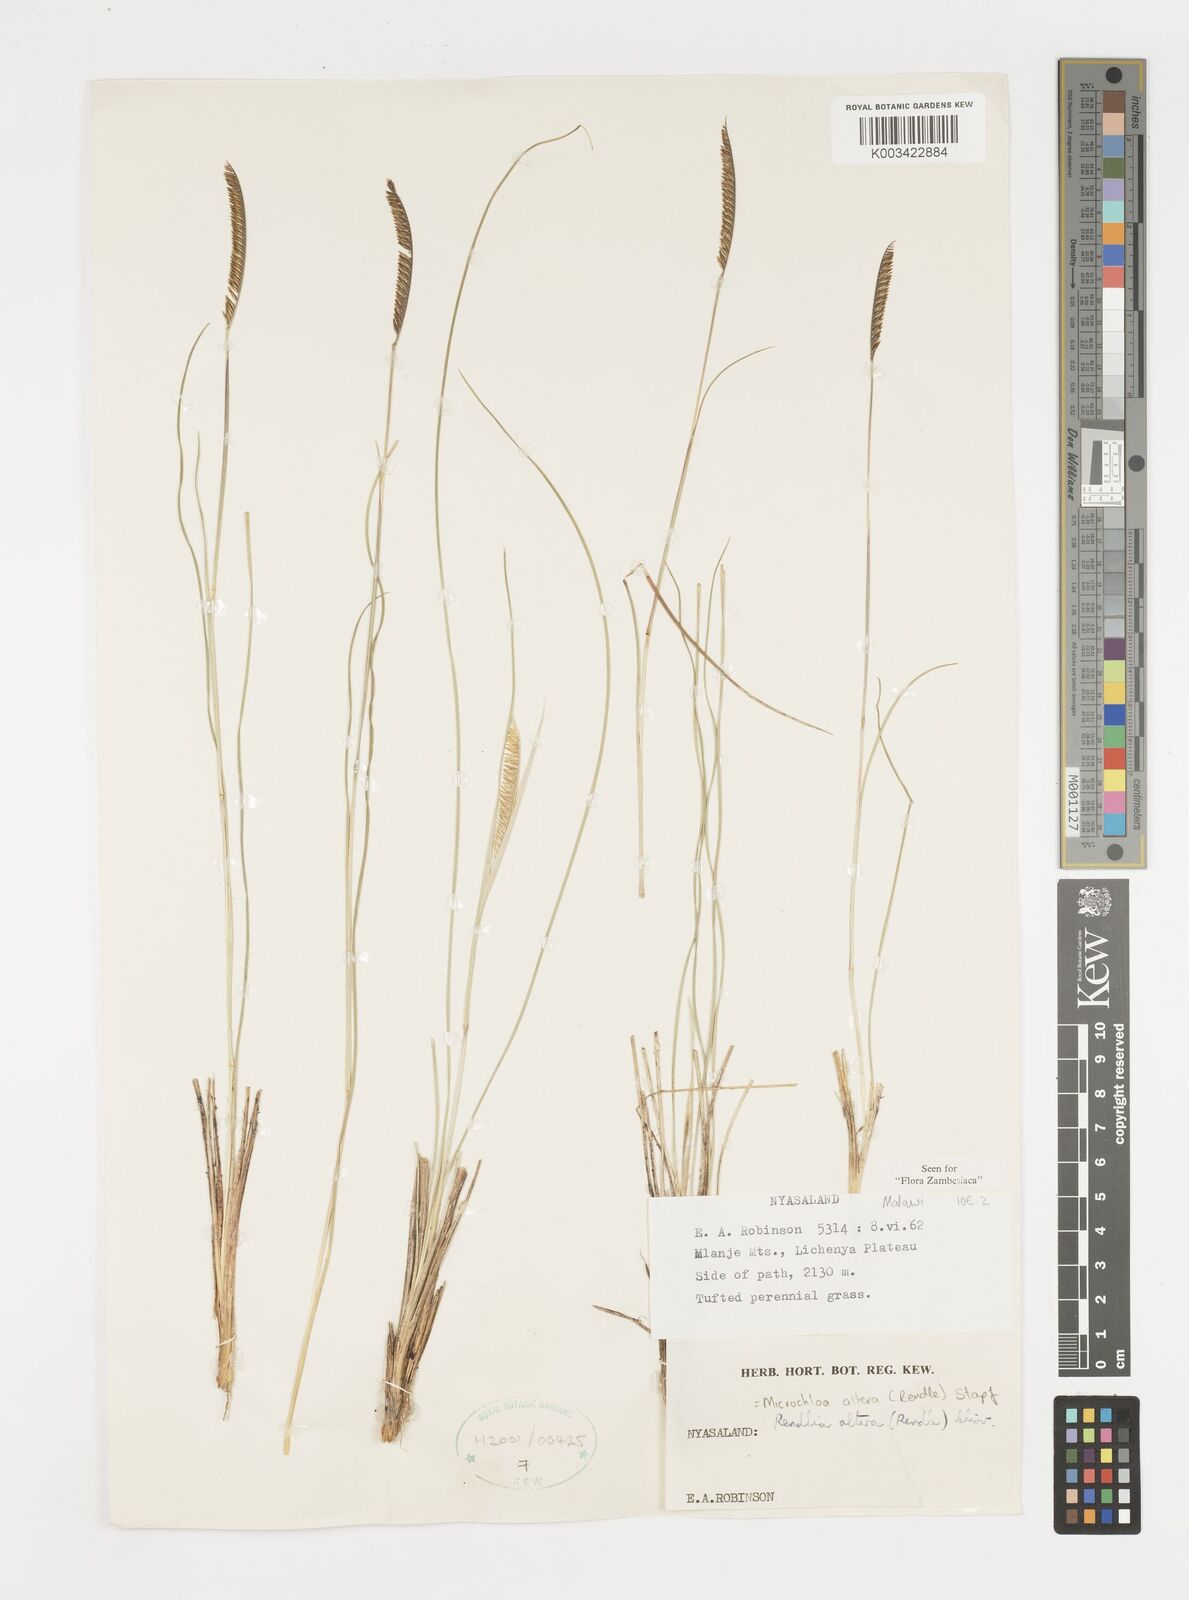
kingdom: Plantae
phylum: Tracheophyta
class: Liliopsida
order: Poales
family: Poaceae
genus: Microchloa
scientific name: Microchloa altera
